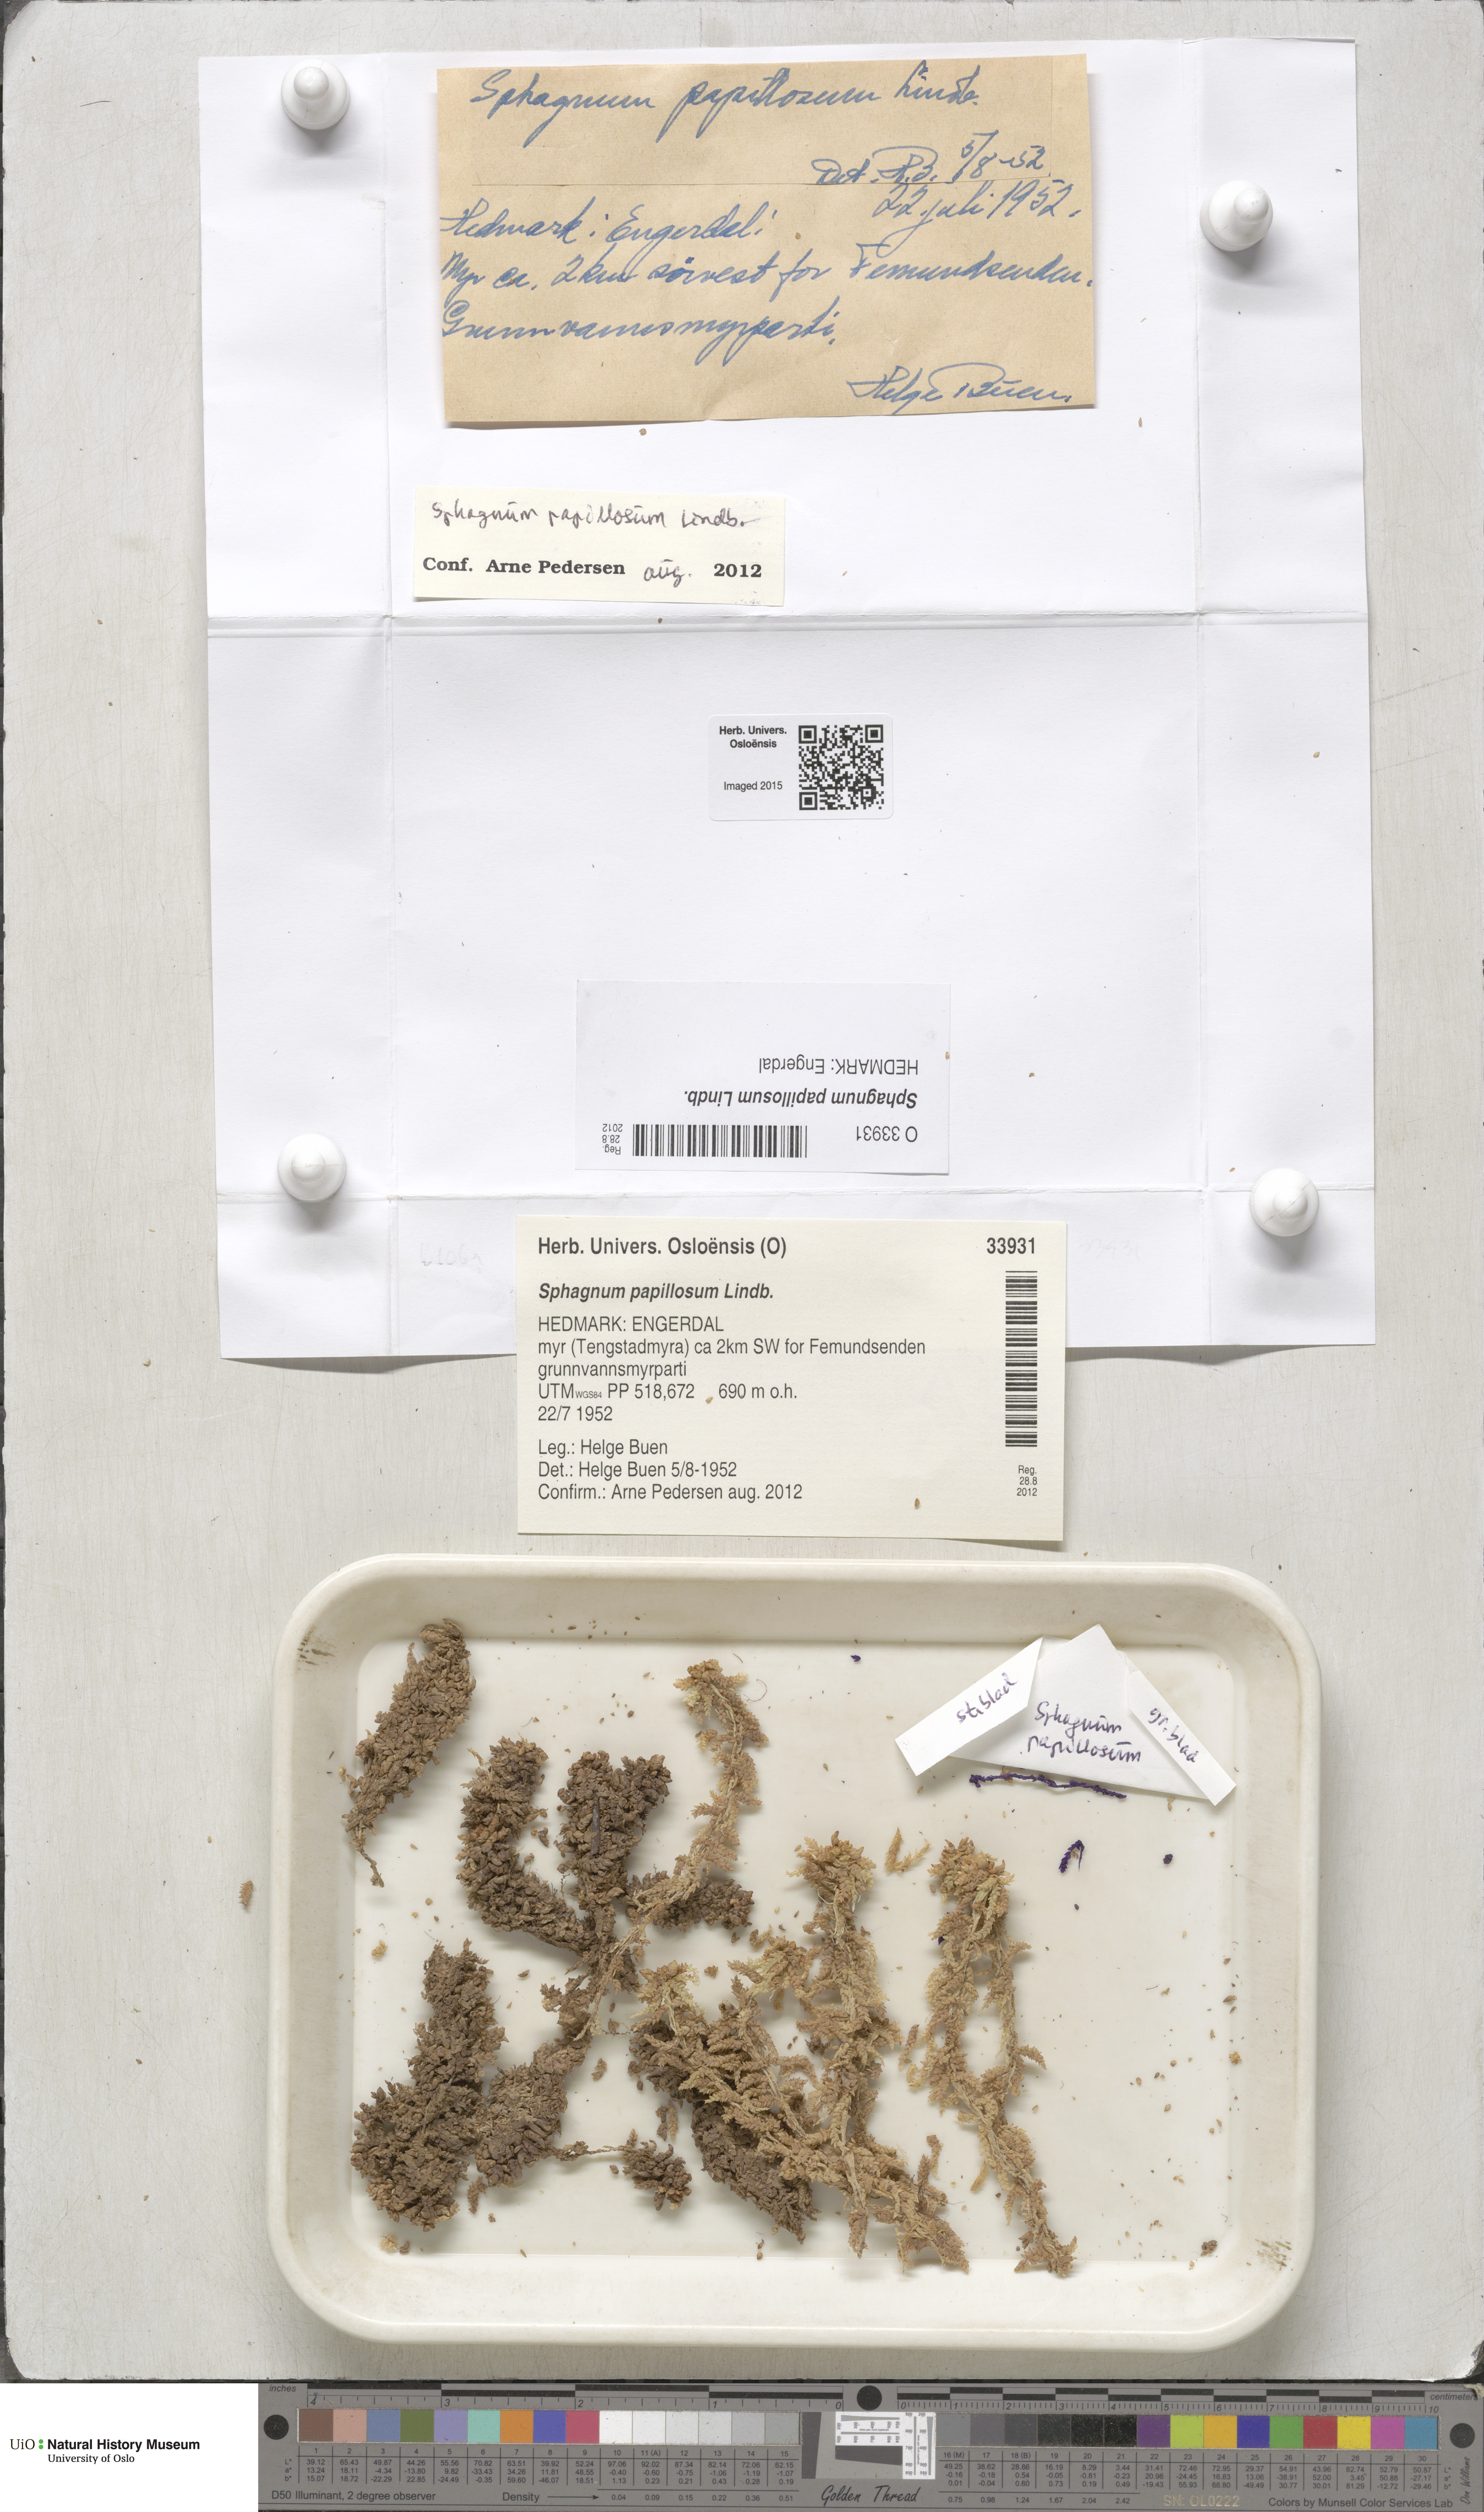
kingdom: Plantae
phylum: Bryophyta
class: Sphagnopsida
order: Sphagnales
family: Sphagnaceae
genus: Sphagnum
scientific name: Sphagnum papillosum
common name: Papillose peat moss
